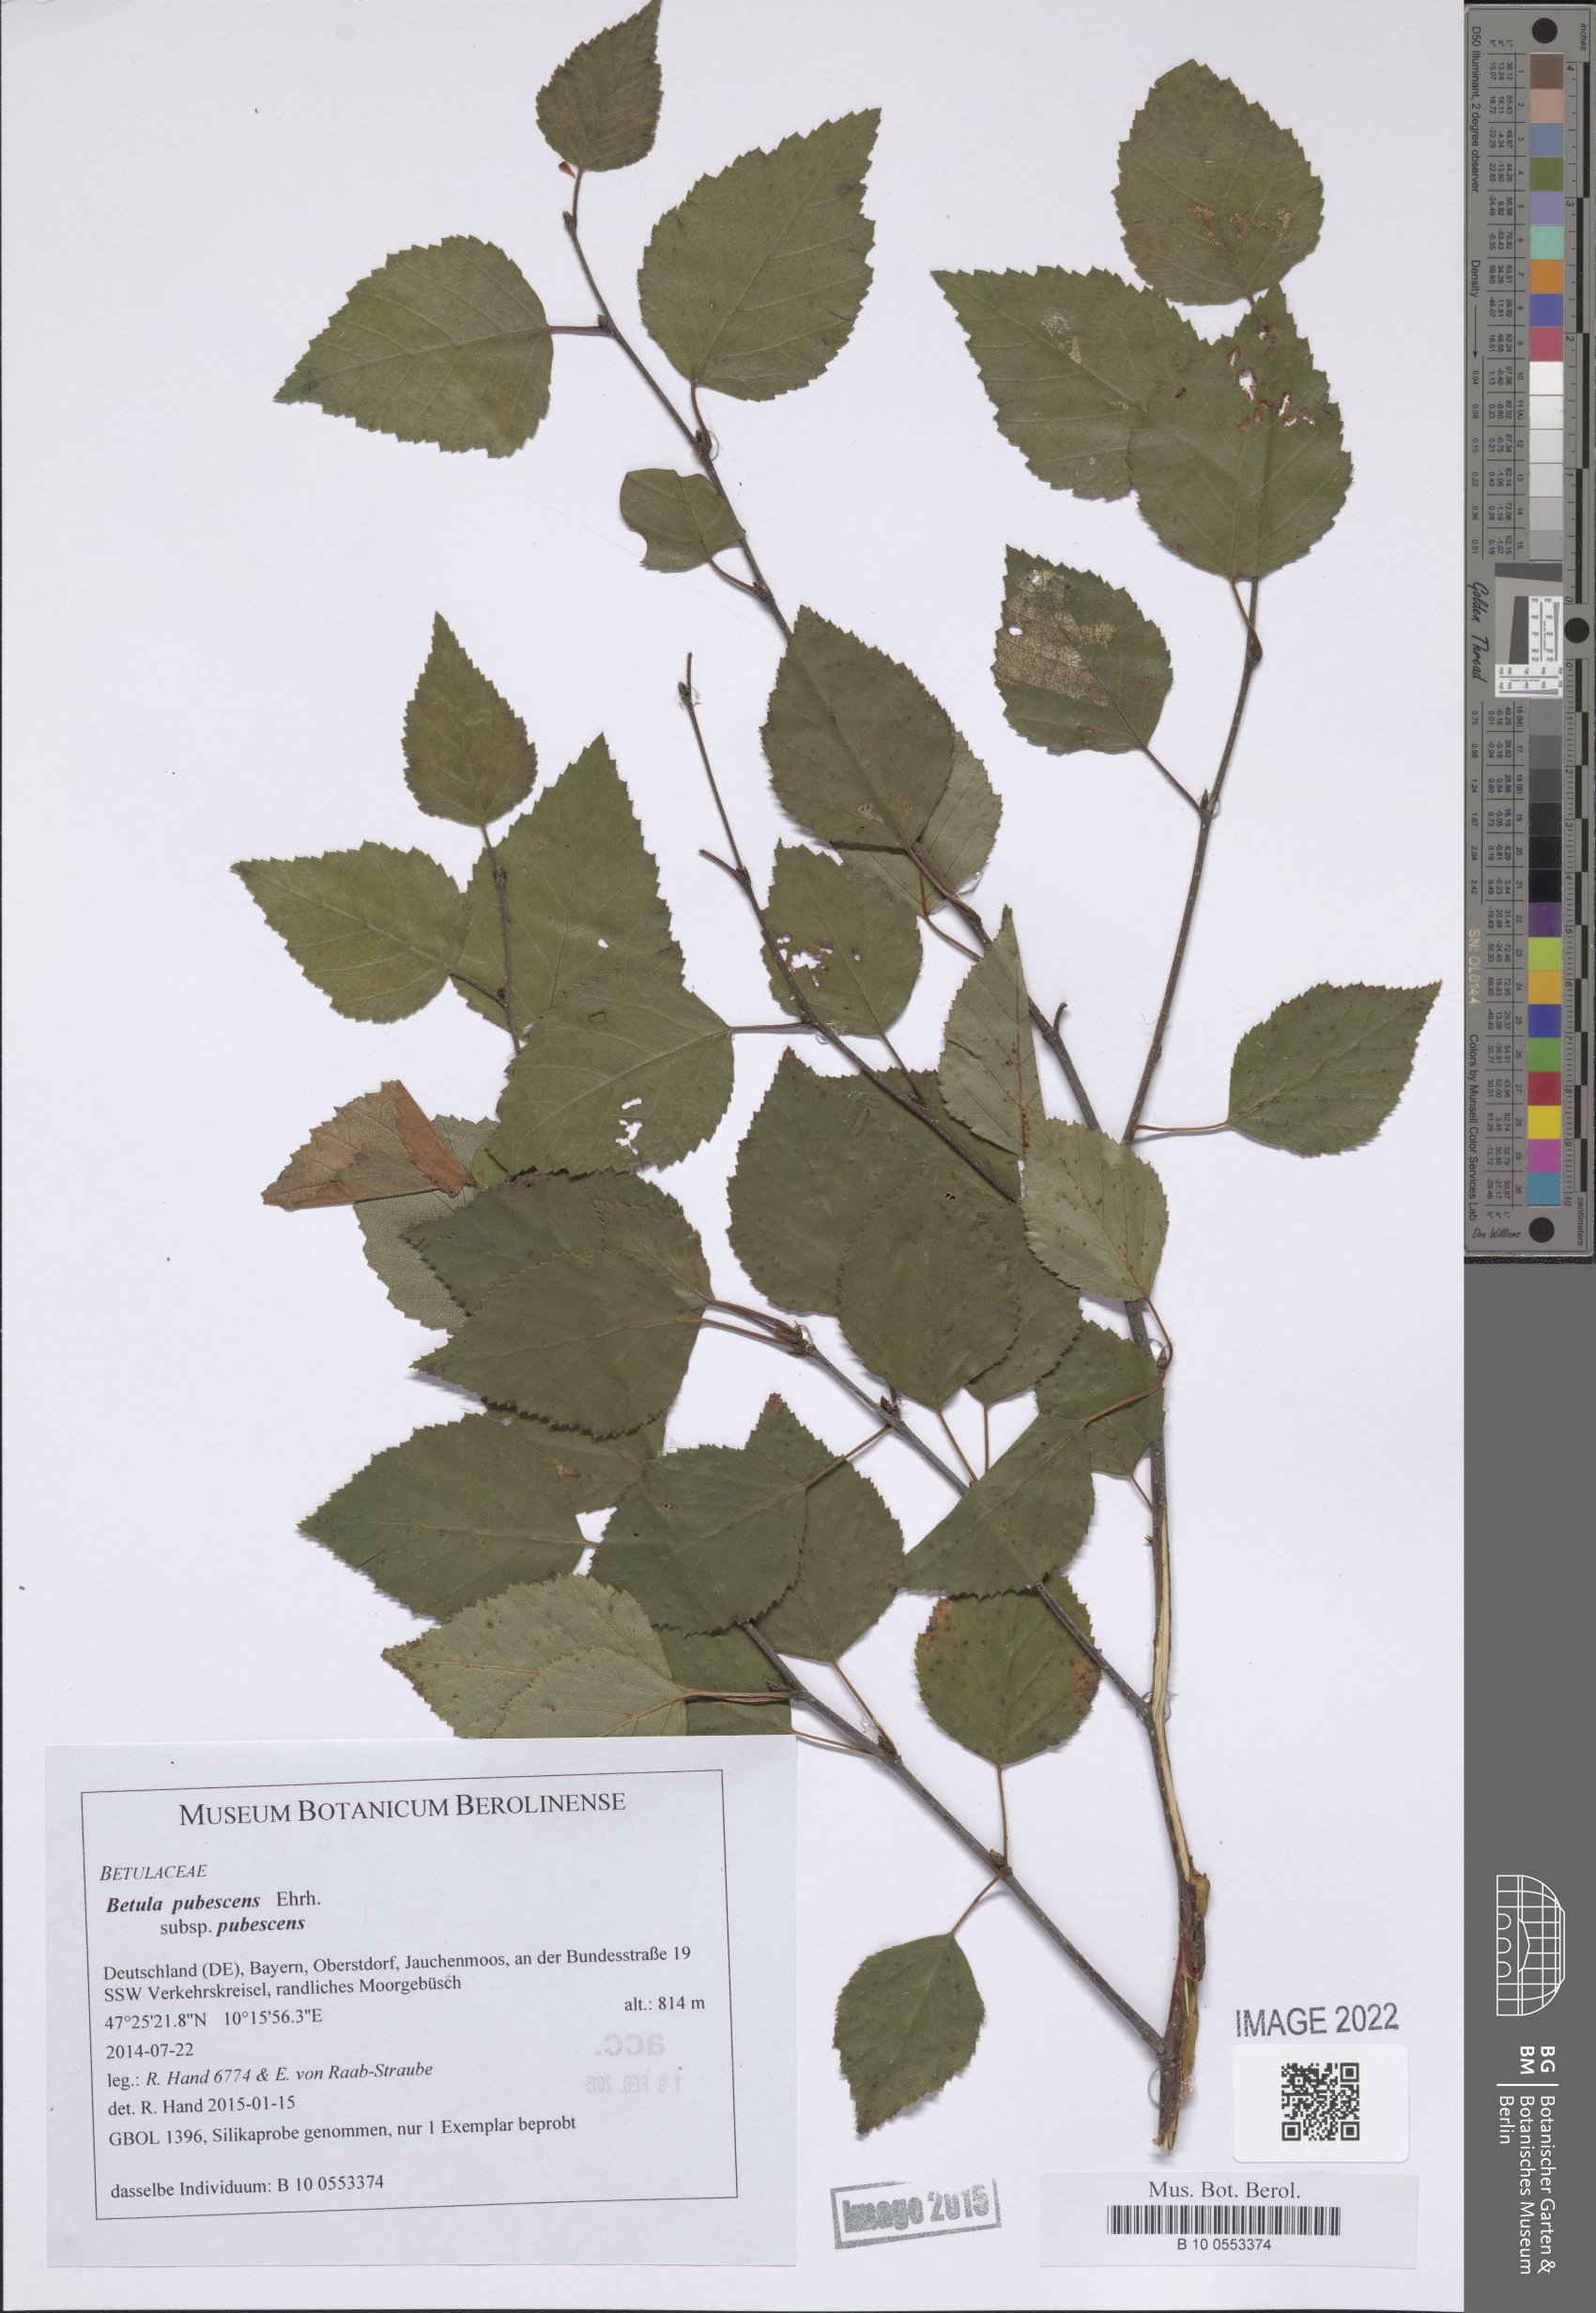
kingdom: Plantae
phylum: Tracheophyta
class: Magnoliopsida
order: Fagales
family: Betulaceae
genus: Betula
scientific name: Betula pubescens
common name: Downy birch
